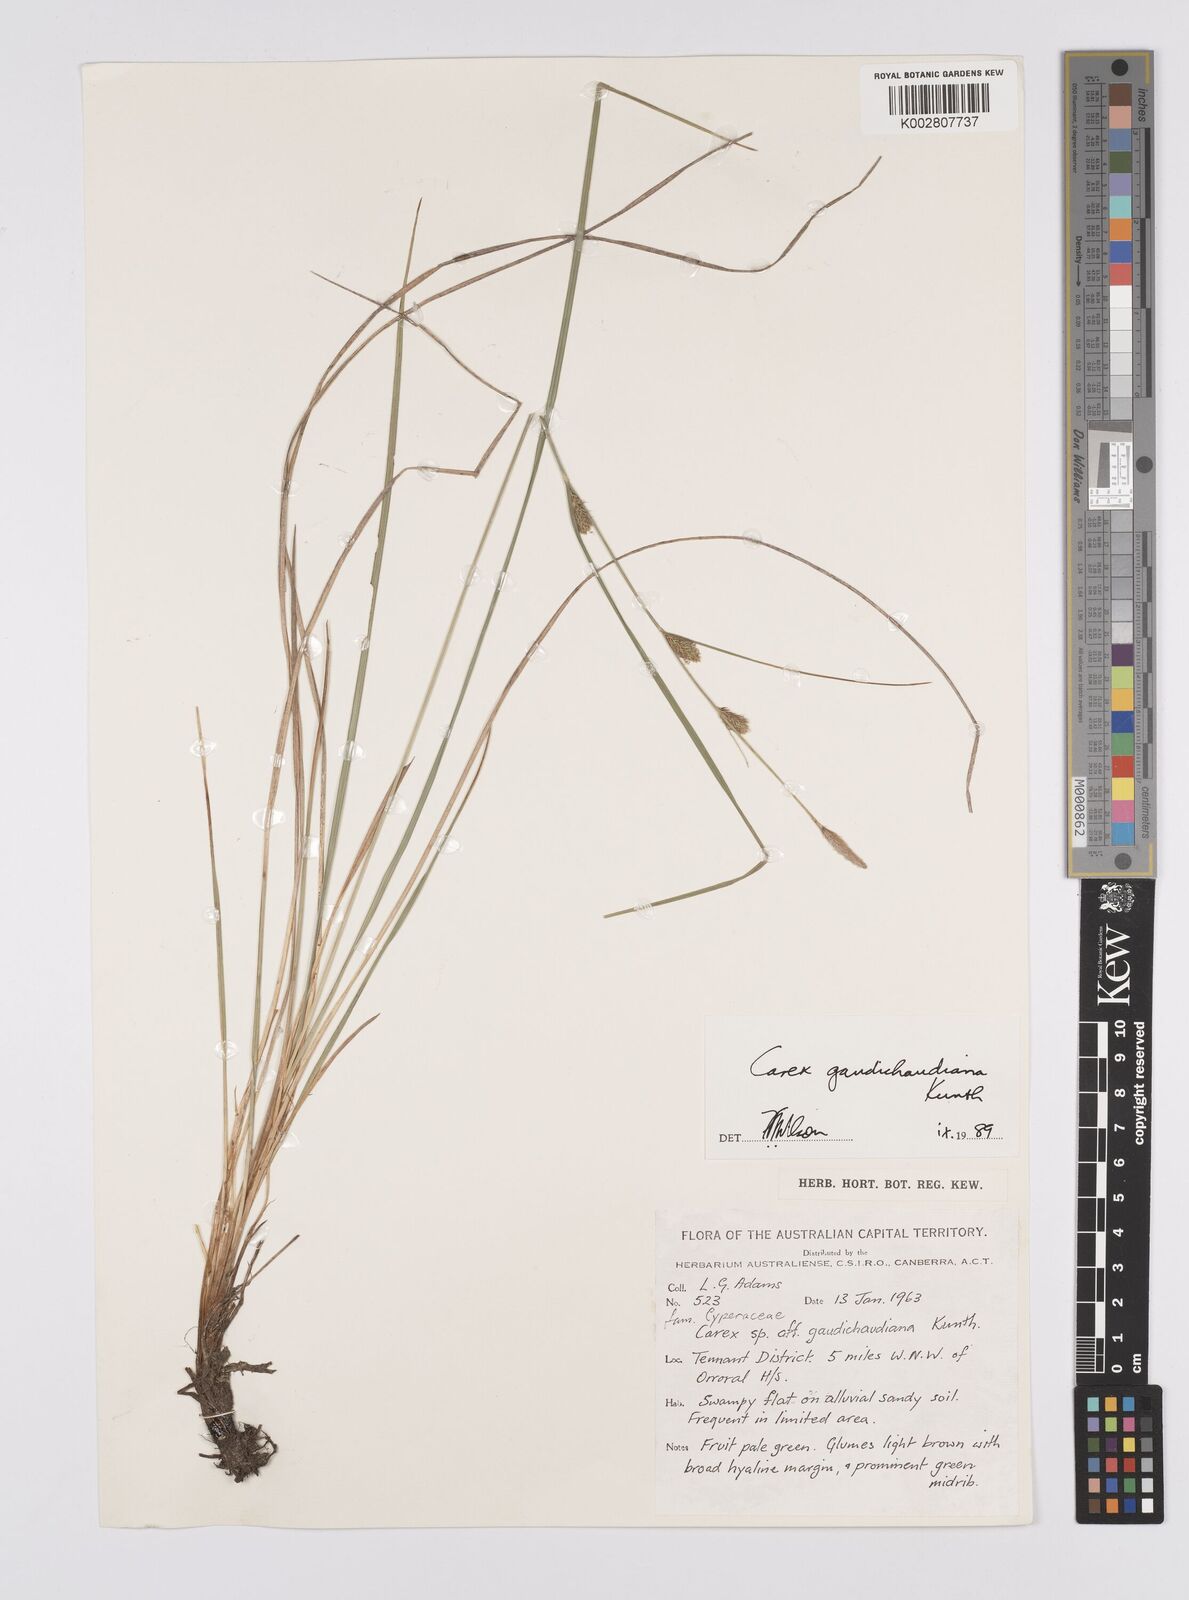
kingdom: Plantae
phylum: Tracheophyta
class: Liliopsida
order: Poales
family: Cyperaceae
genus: Carex
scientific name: Carex gaudichaudiana
